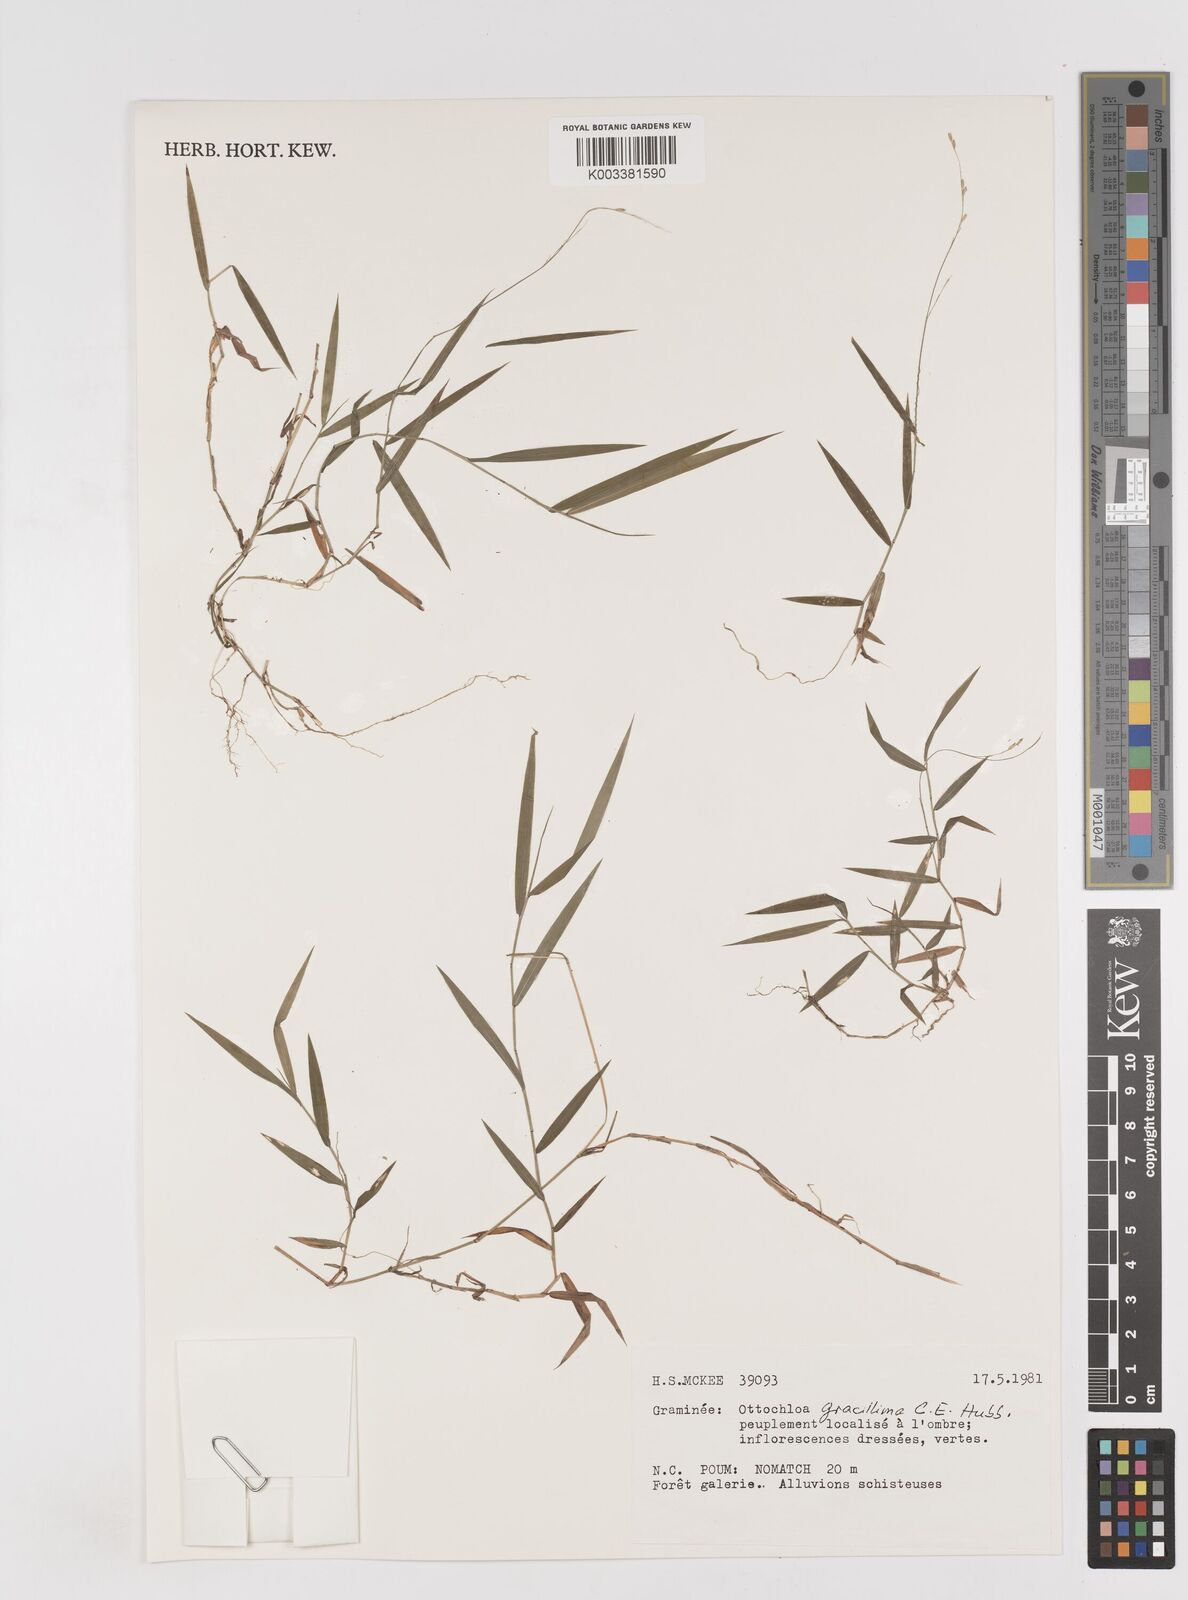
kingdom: Plantae
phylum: Tracheophyta
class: Liliopsida
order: Poales
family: Poaceae
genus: Ottochloa
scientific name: Ottochloa gracillima
